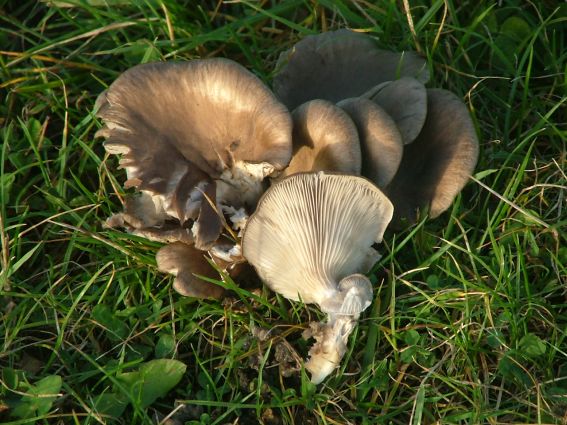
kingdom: Fungi
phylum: Basidiomycota
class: Agaricomycetes
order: Agaricales
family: Pleurotaceae
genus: Pleurotus
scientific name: Pleurotus ostreatus
